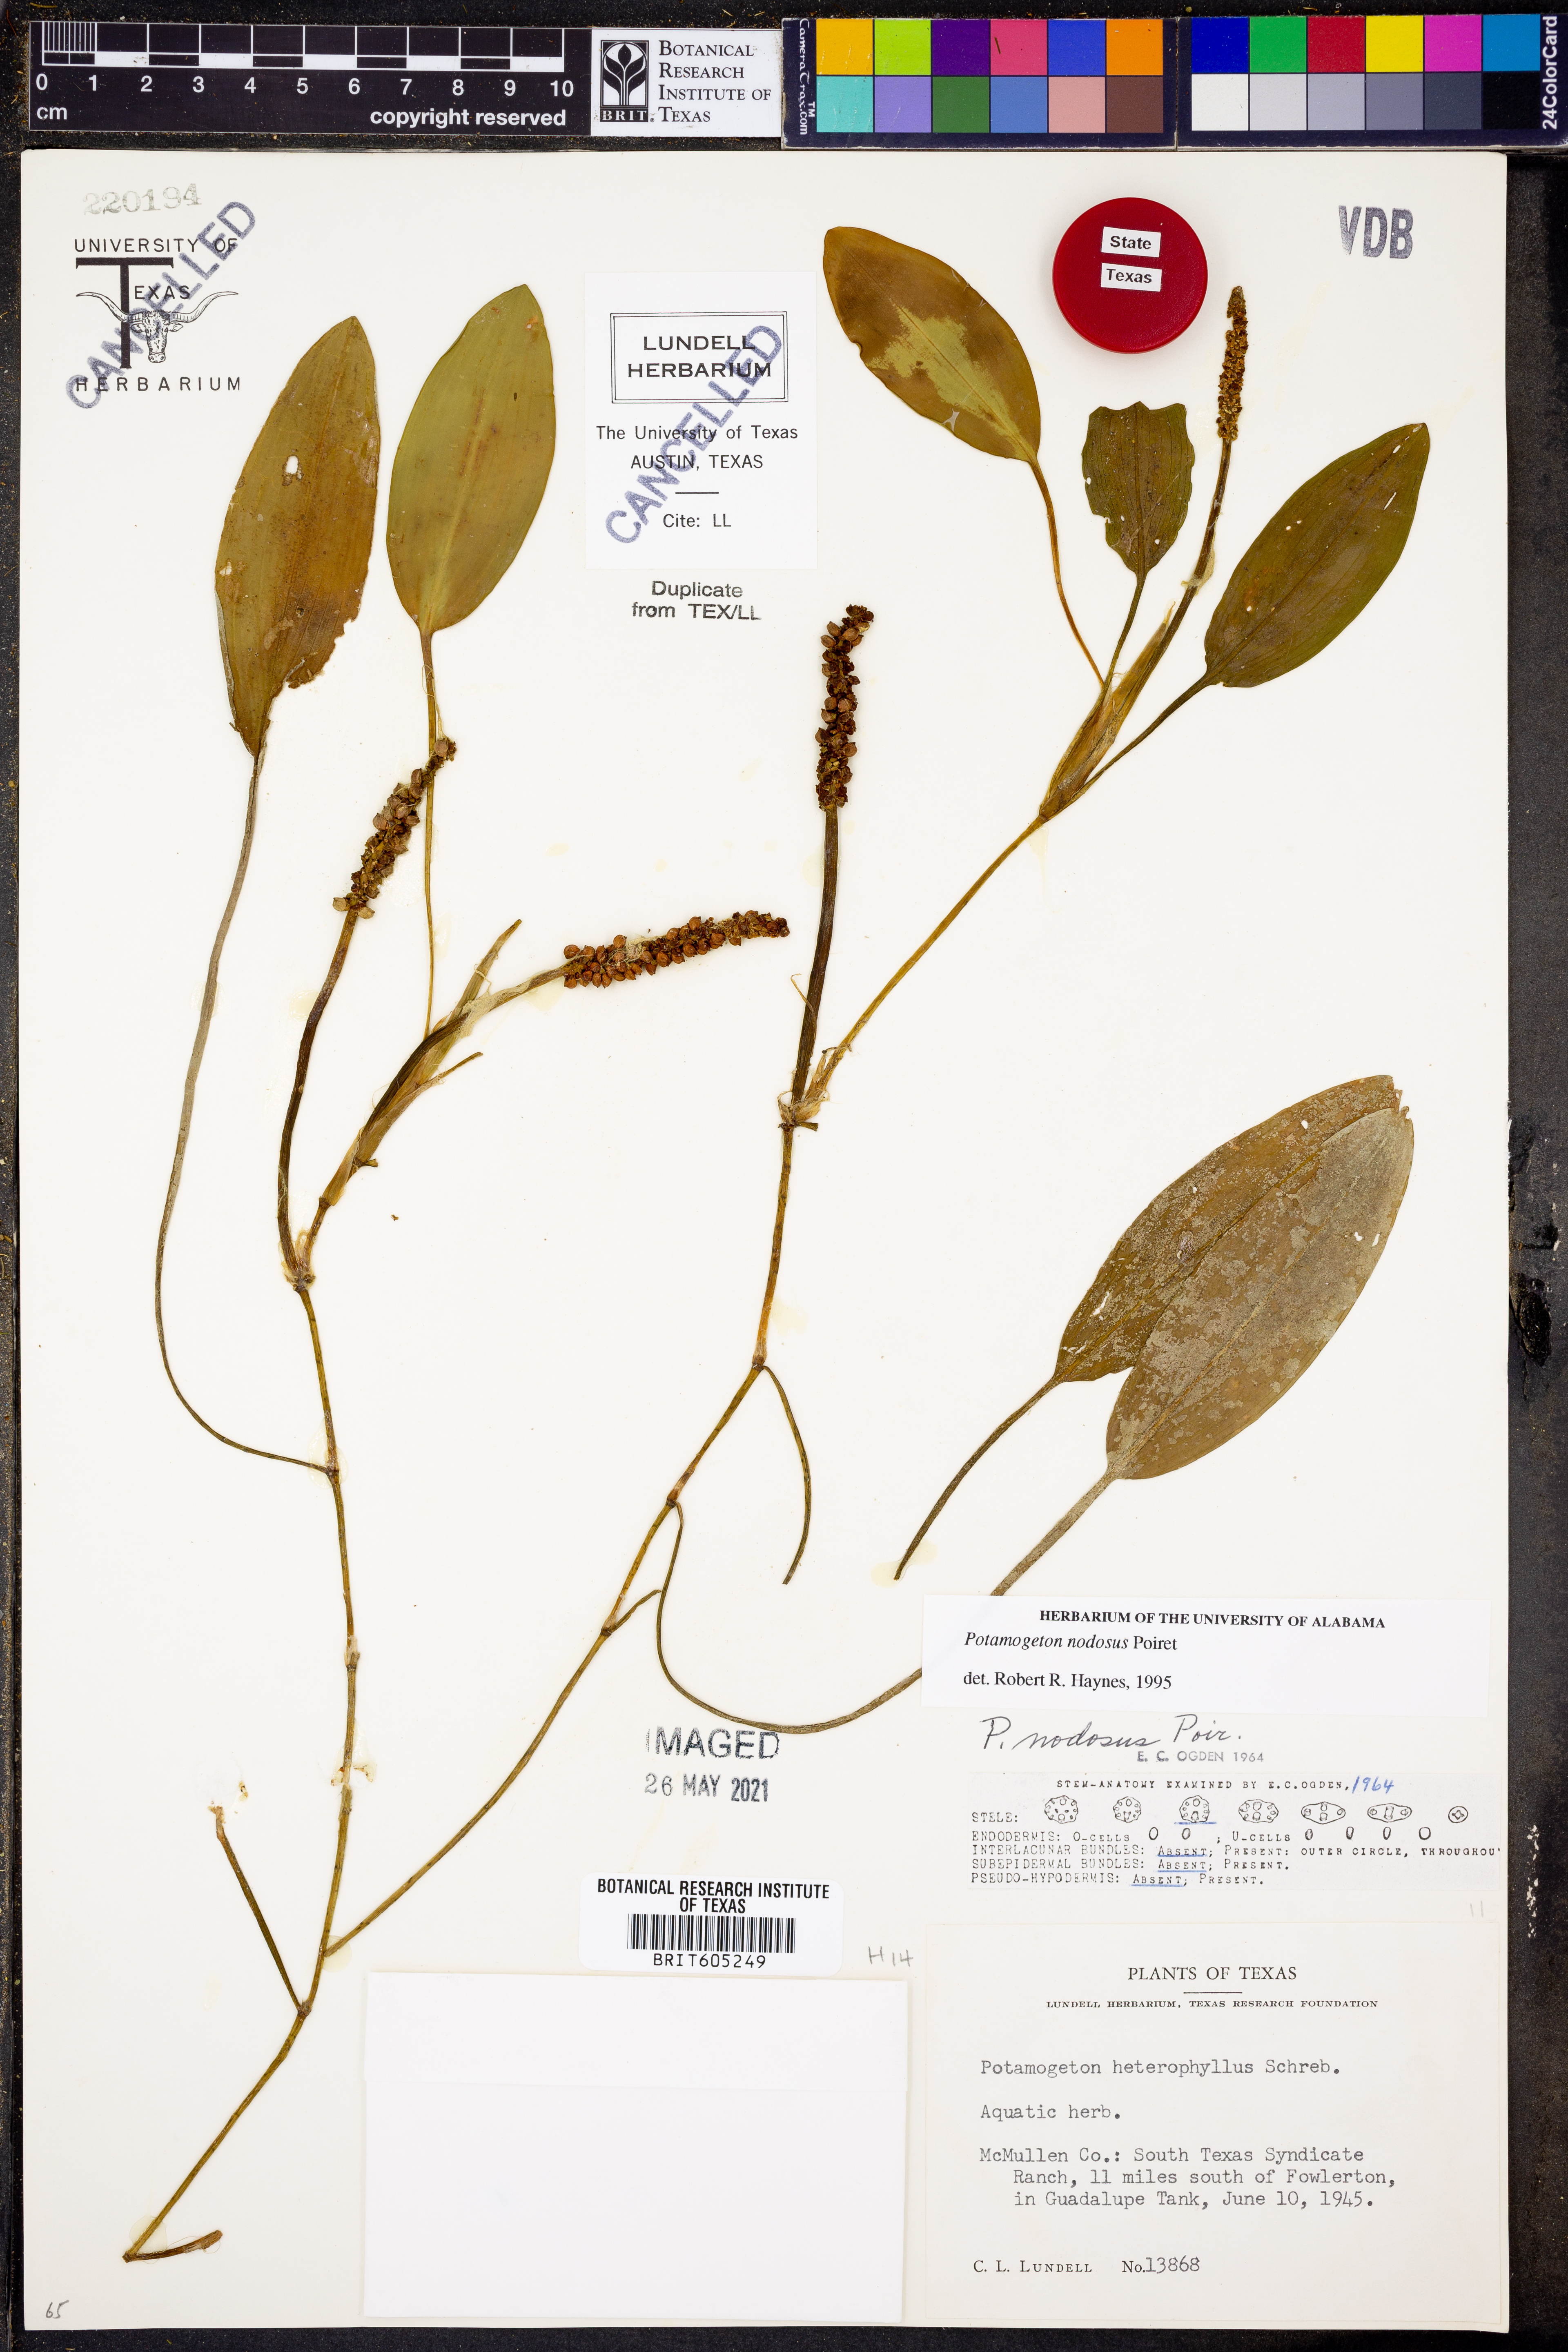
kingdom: Plantae
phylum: Tracheophyta
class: Liliopsida
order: Alismatales
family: Potamogetonaceae
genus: Potamogeton
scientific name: Potamogeton nodosus
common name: Loddon pondweed
